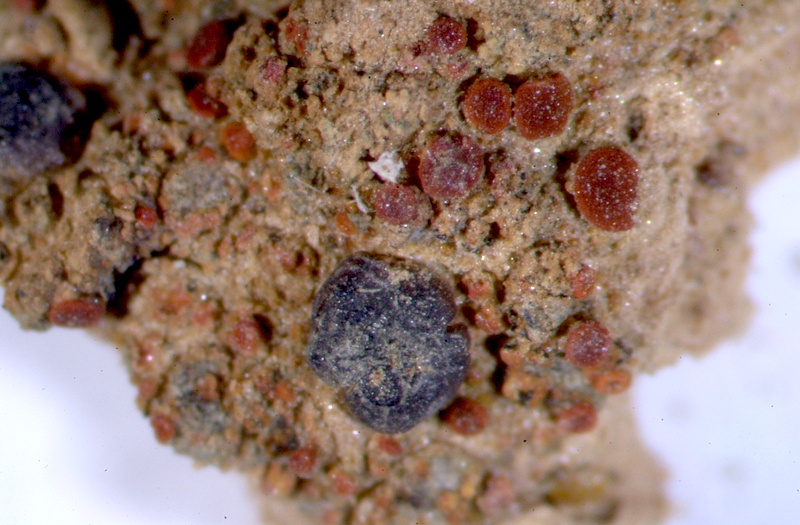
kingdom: Fungi
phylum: Ascomycota
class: Lecanoromycetes
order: Teloschistales
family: Teloschistaceae
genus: Caloplaca
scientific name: Caloplaca
